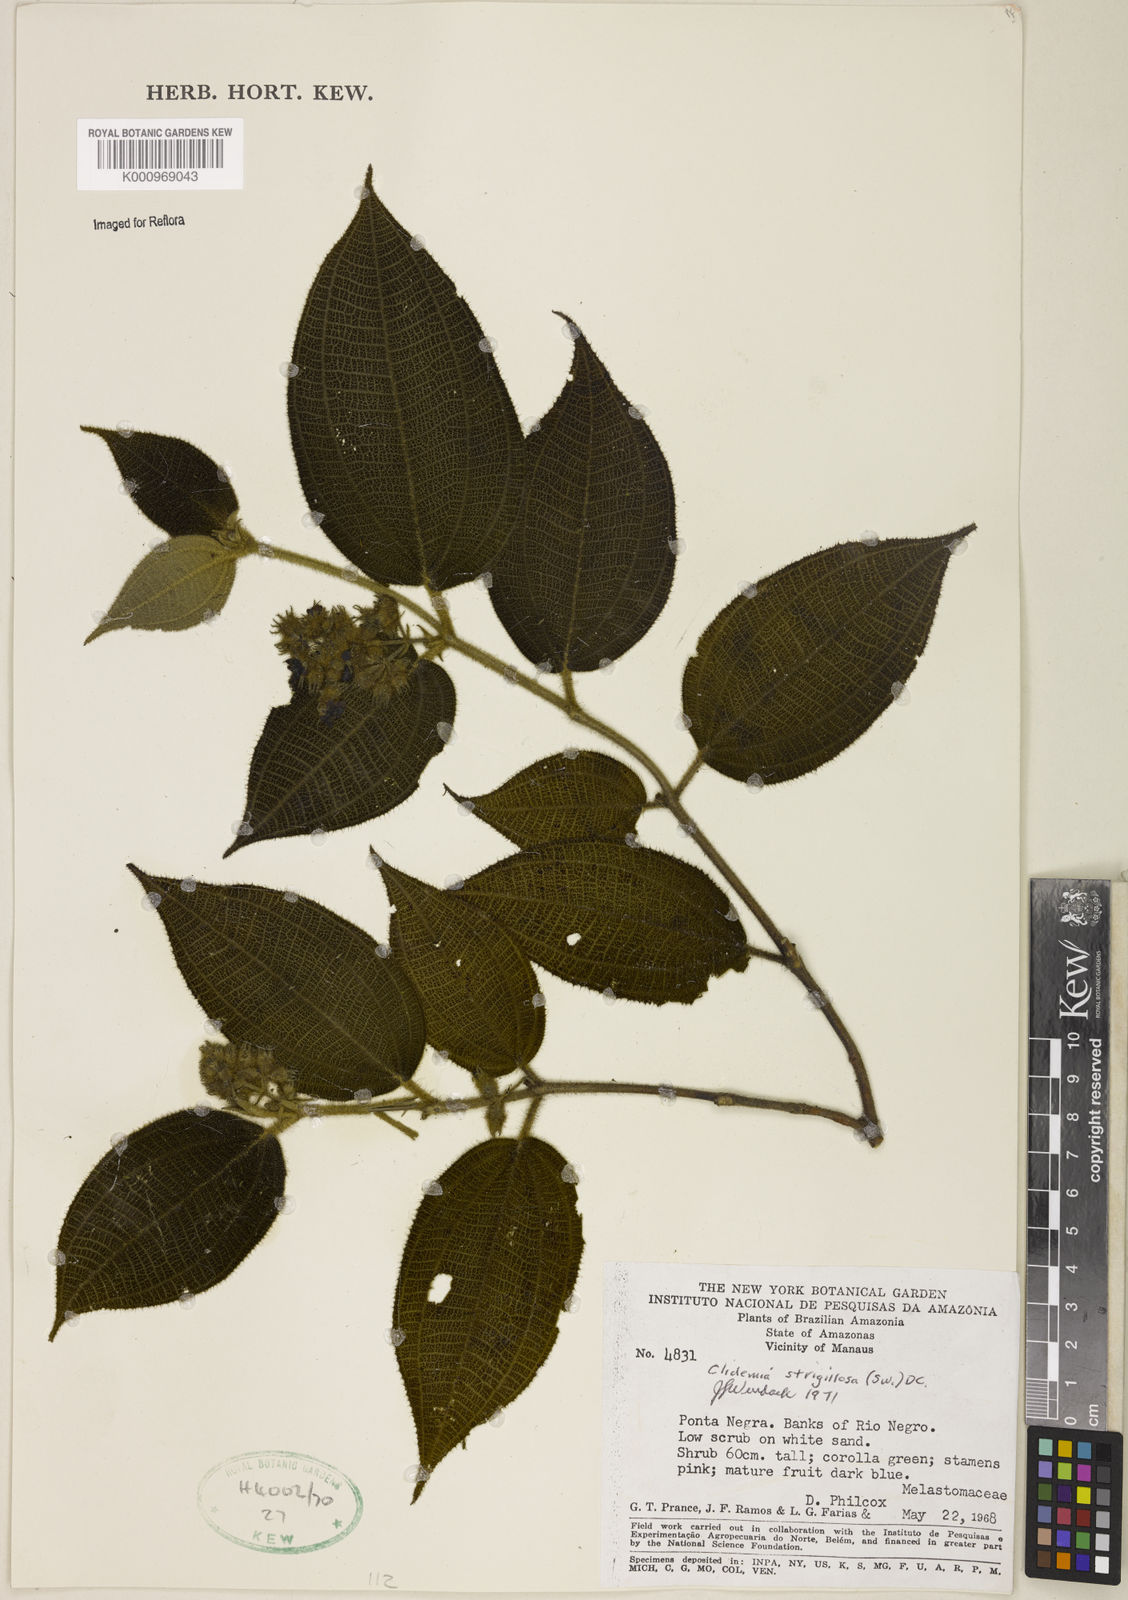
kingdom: Plantae
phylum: Tracheophyta
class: Magnoliopsida
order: Myrtales
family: Melastomataceae
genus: Miconia
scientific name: Miconia strigillosa
